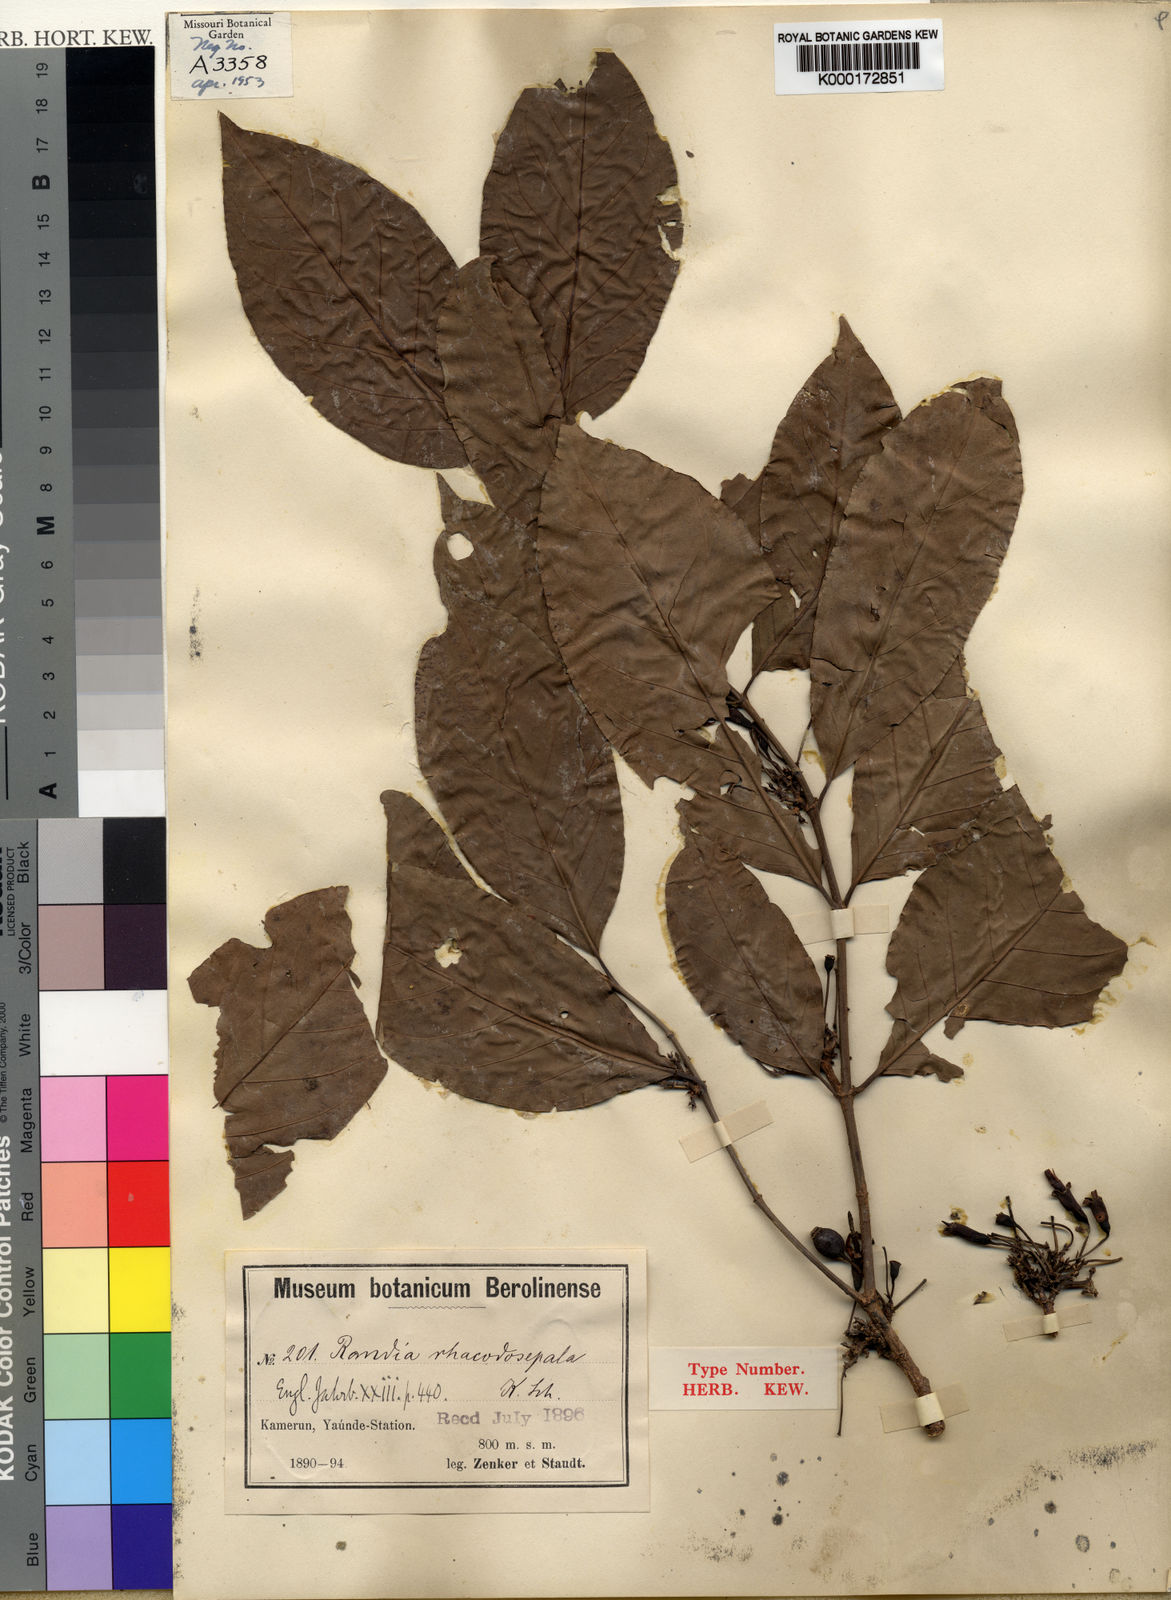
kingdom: Plantae
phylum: Tracheophyta
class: Magnoliopsida
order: Gentianales
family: Rubiaceae
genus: Aidia
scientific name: Aidia rhacodosepala
